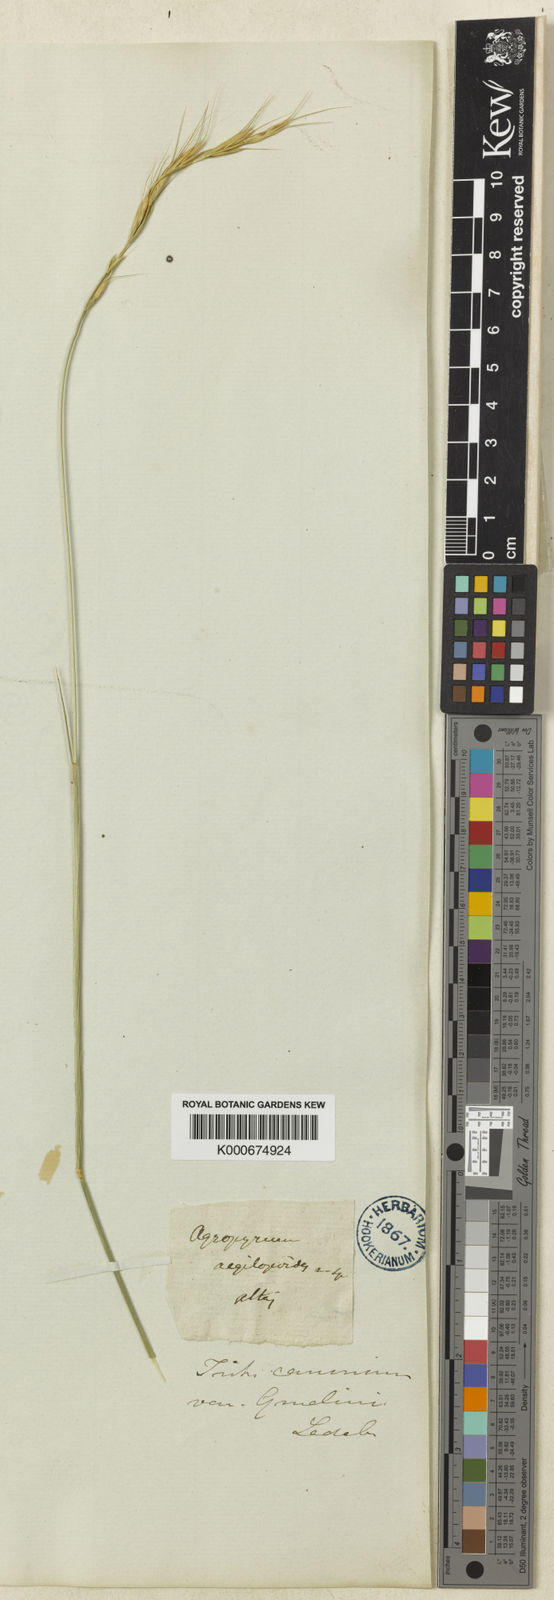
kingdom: Plantae
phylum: Tracheophyta
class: Liliopsida
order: Poales
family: Poaceae
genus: Elymus
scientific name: Elymus caninus
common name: Bearded couch
